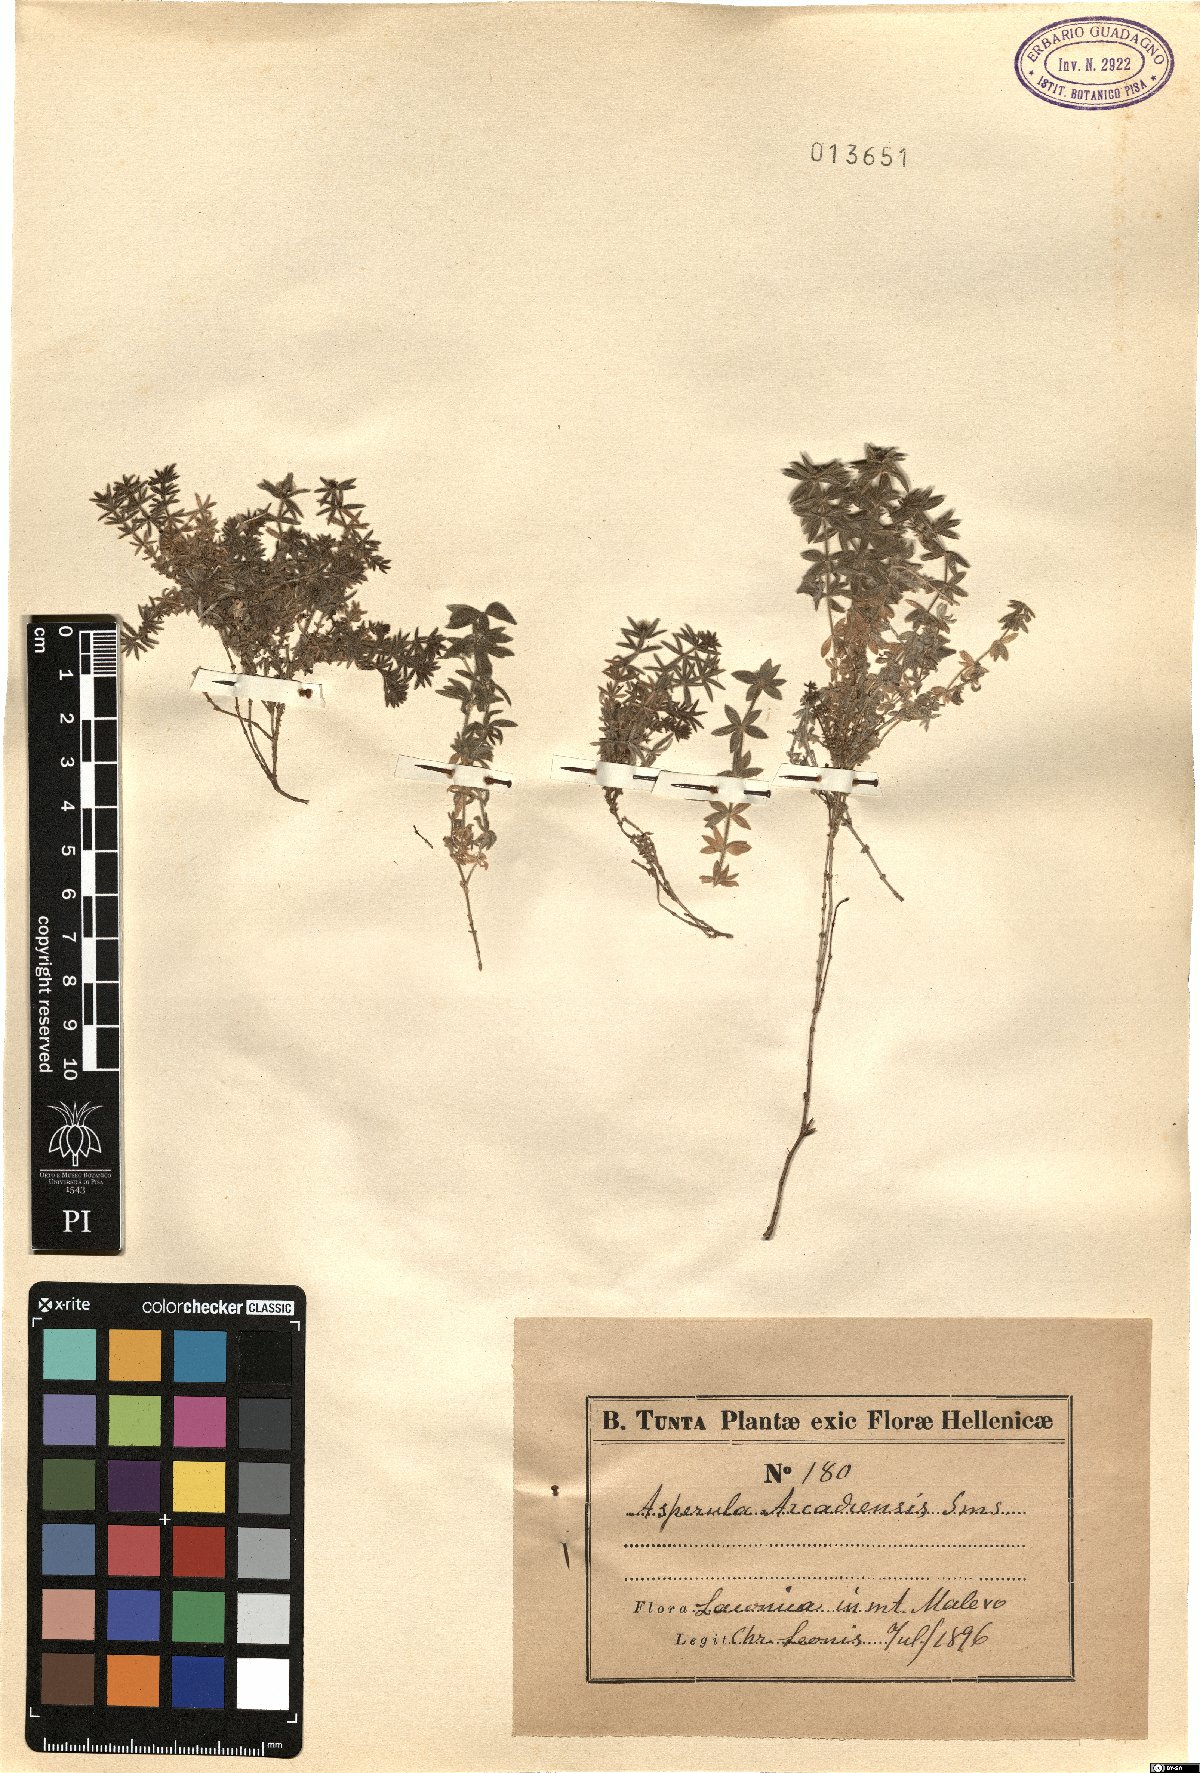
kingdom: Plantae
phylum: Tracheophyta
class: Magnoliopsida
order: Gentianales
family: Rubiaceae
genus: Hexaphylla
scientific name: Hexaphylla arcadiensis
